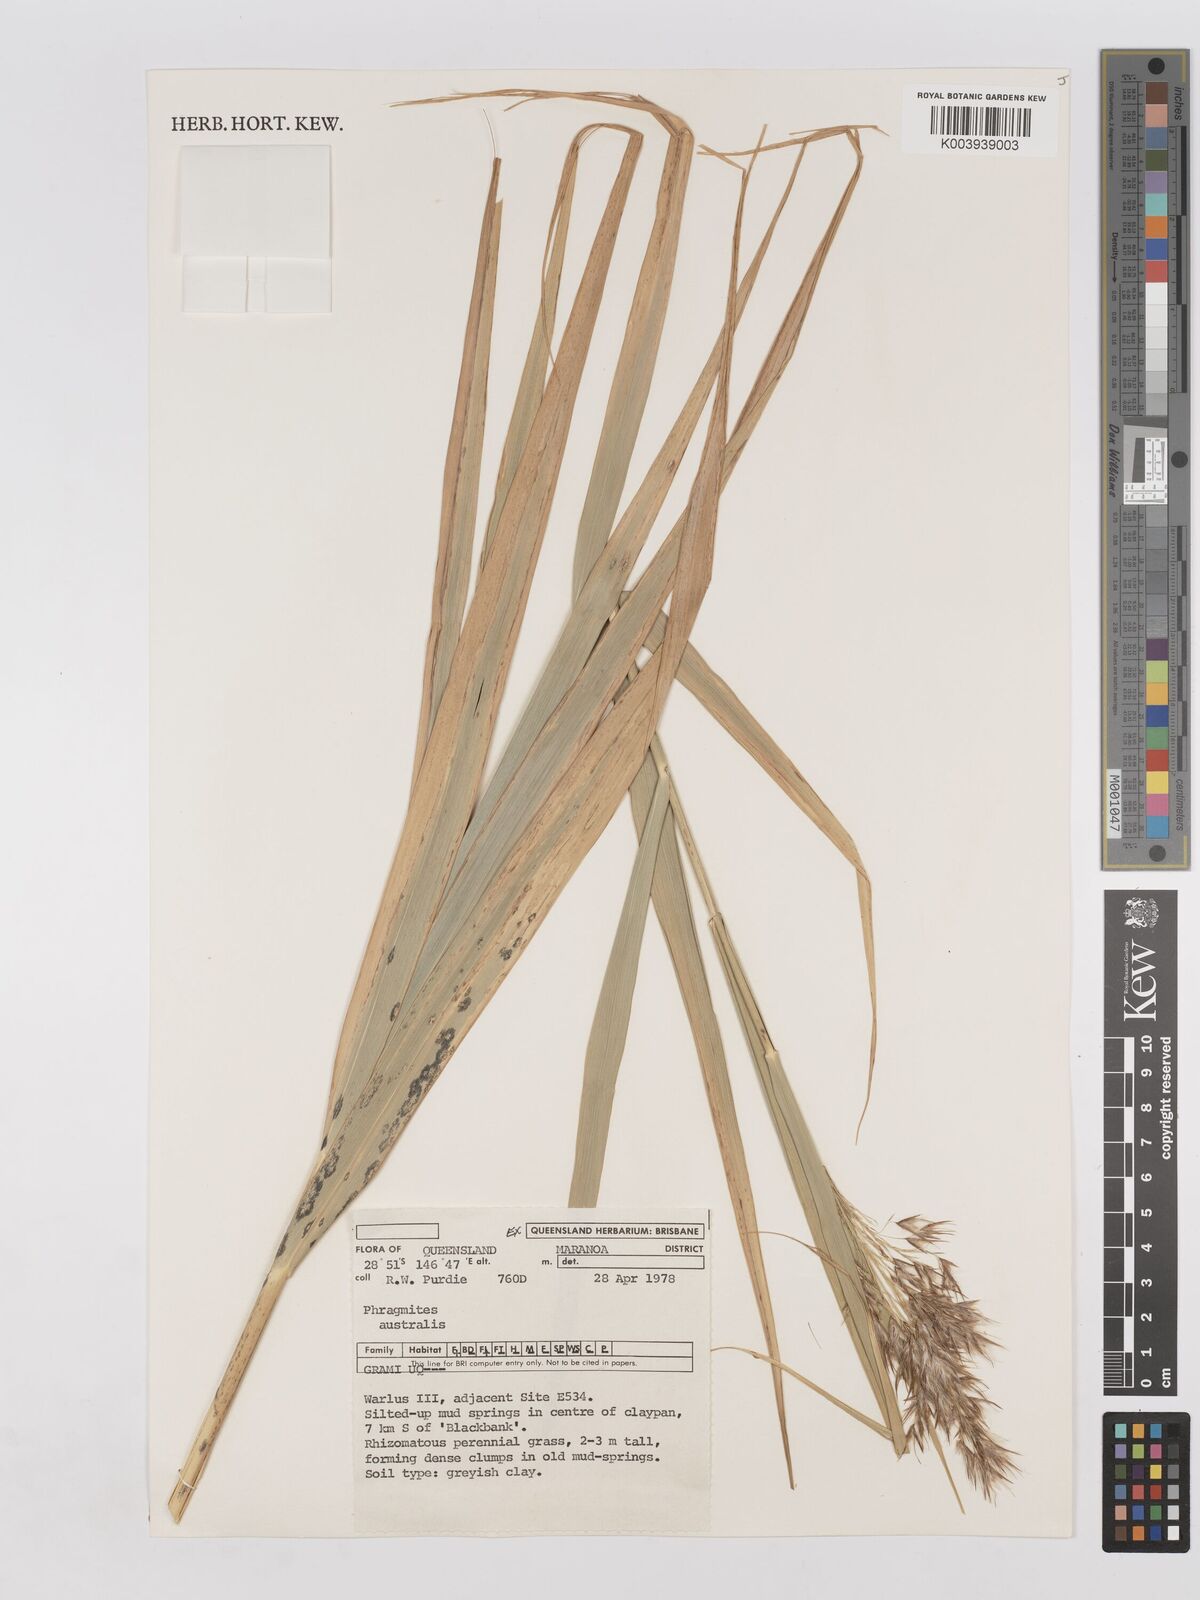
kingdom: Plantae
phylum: Tracheophyta
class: Liliopsida
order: Poales
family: Poaceae
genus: Phragmites
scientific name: Phragmites australis
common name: Common reed
